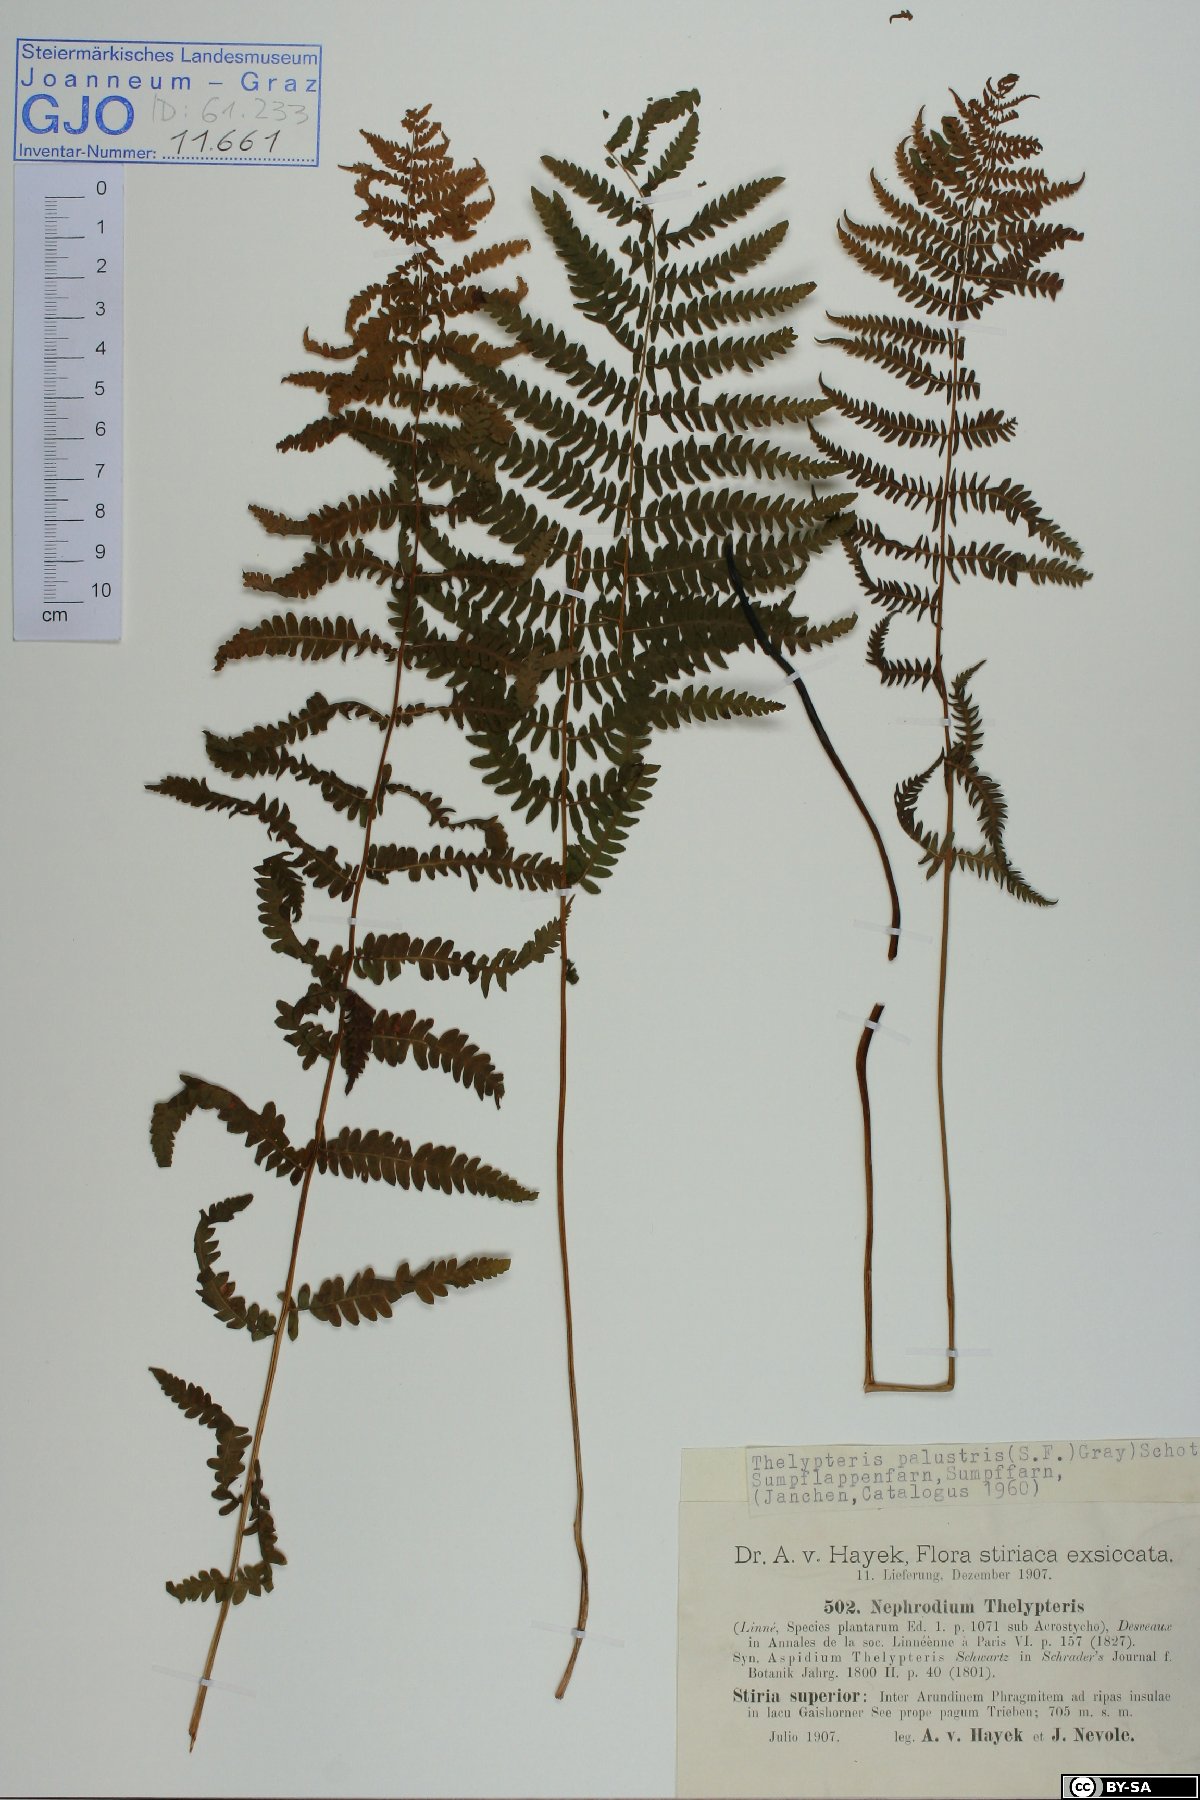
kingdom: Plantae
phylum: Tracheophyta
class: Polypodiopsida
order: Polypodiales
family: Thelypteridaceae
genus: Thelypteris
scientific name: Thelypteris palustris
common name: Marsh fern
